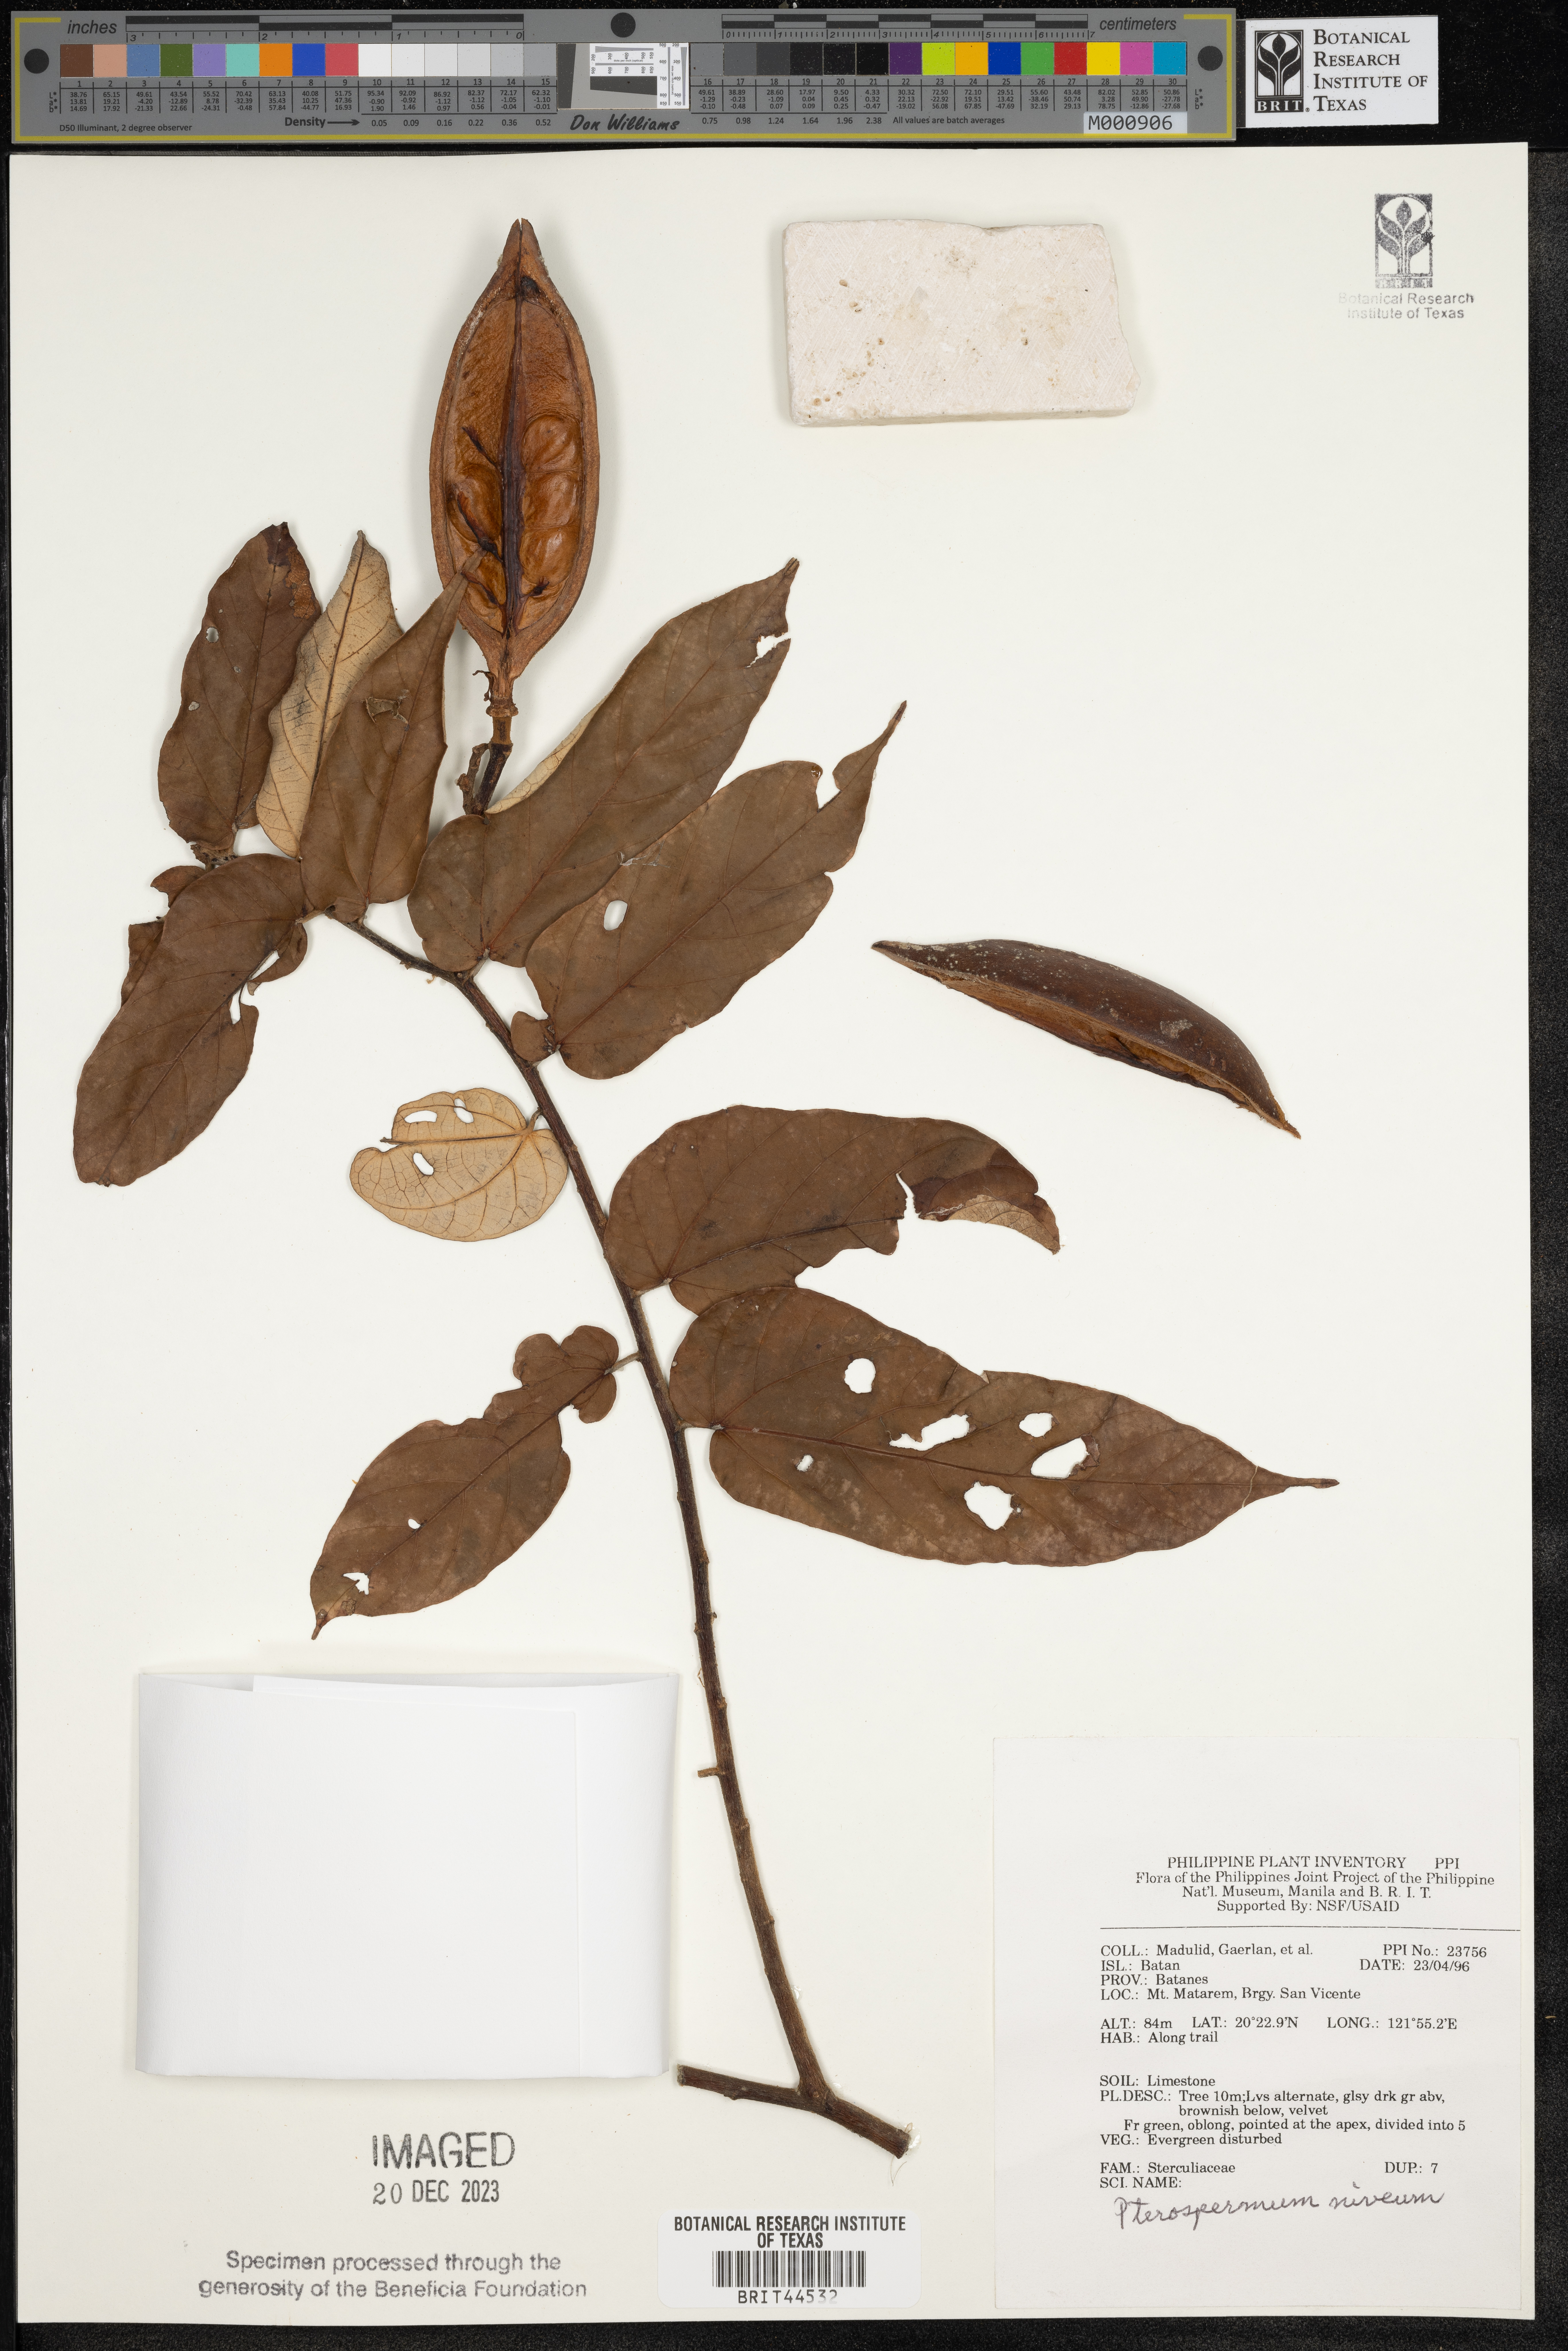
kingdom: Plantae
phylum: Tracheophyta
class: Magnoliopsida
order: Malvales
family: Malvaceae
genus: Pterospermum
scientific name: Pterospermum niveum
